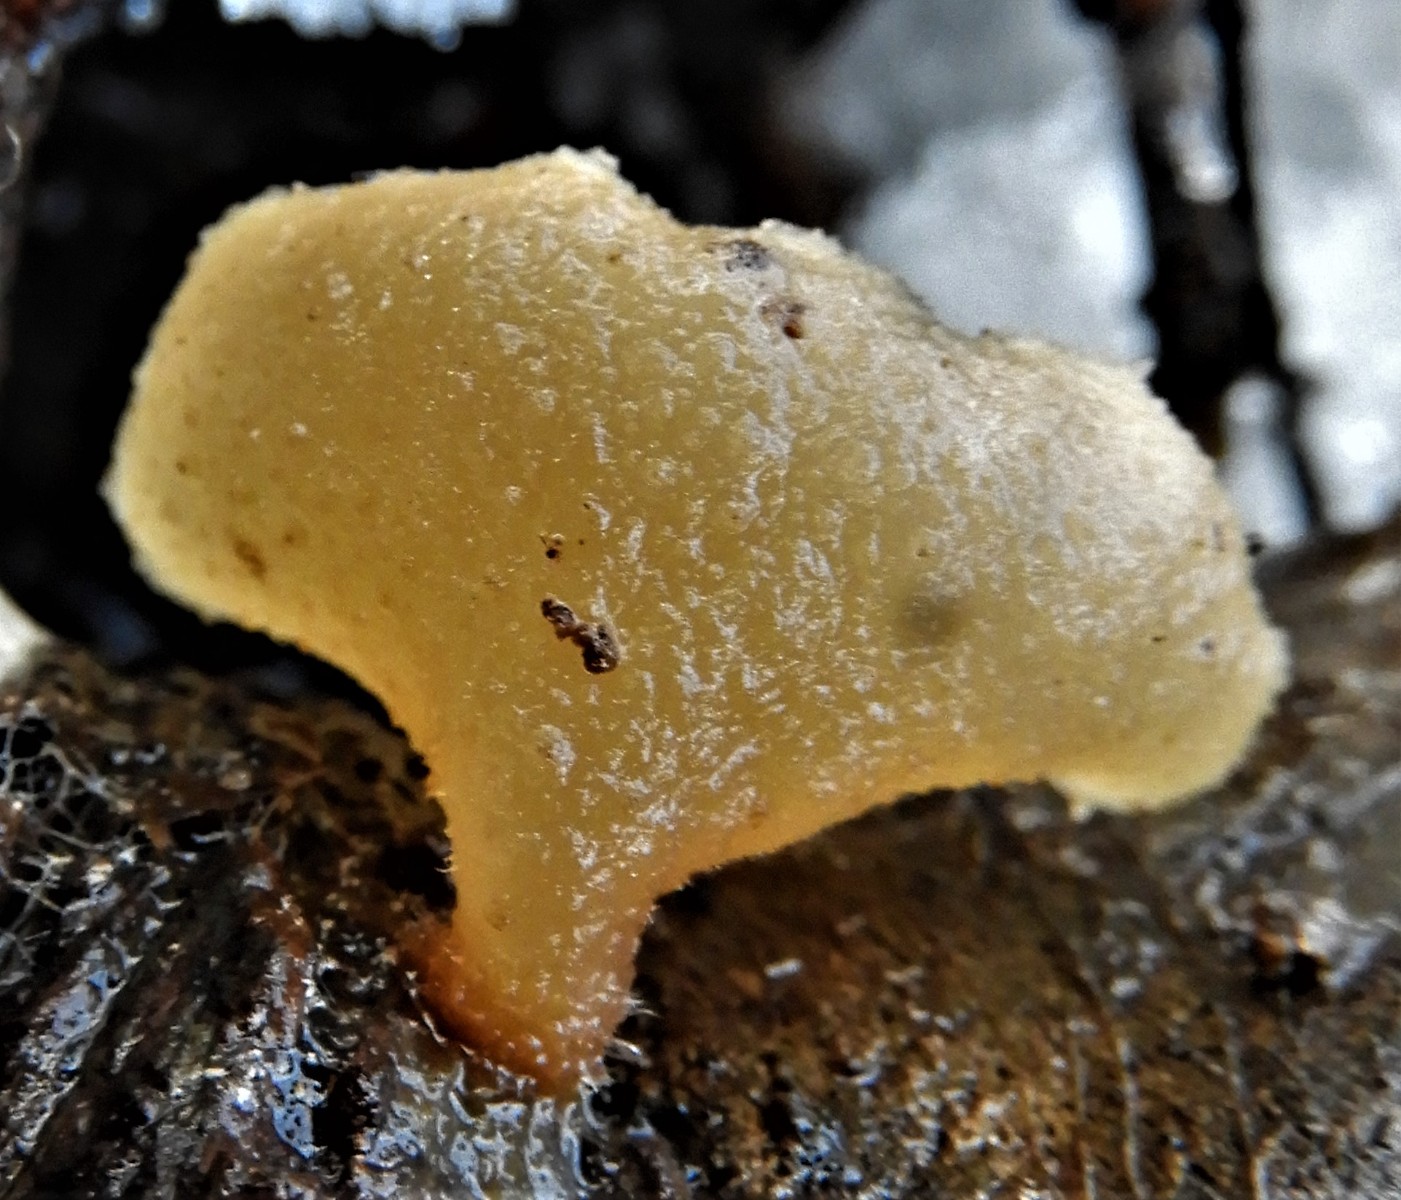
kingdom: Fungi
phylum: Ascomycota
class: Pezizomycetes
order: Pezizales
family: Pezizaceae
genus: Peziza
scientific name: Peziza varia
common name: Ved-bægersvamp
